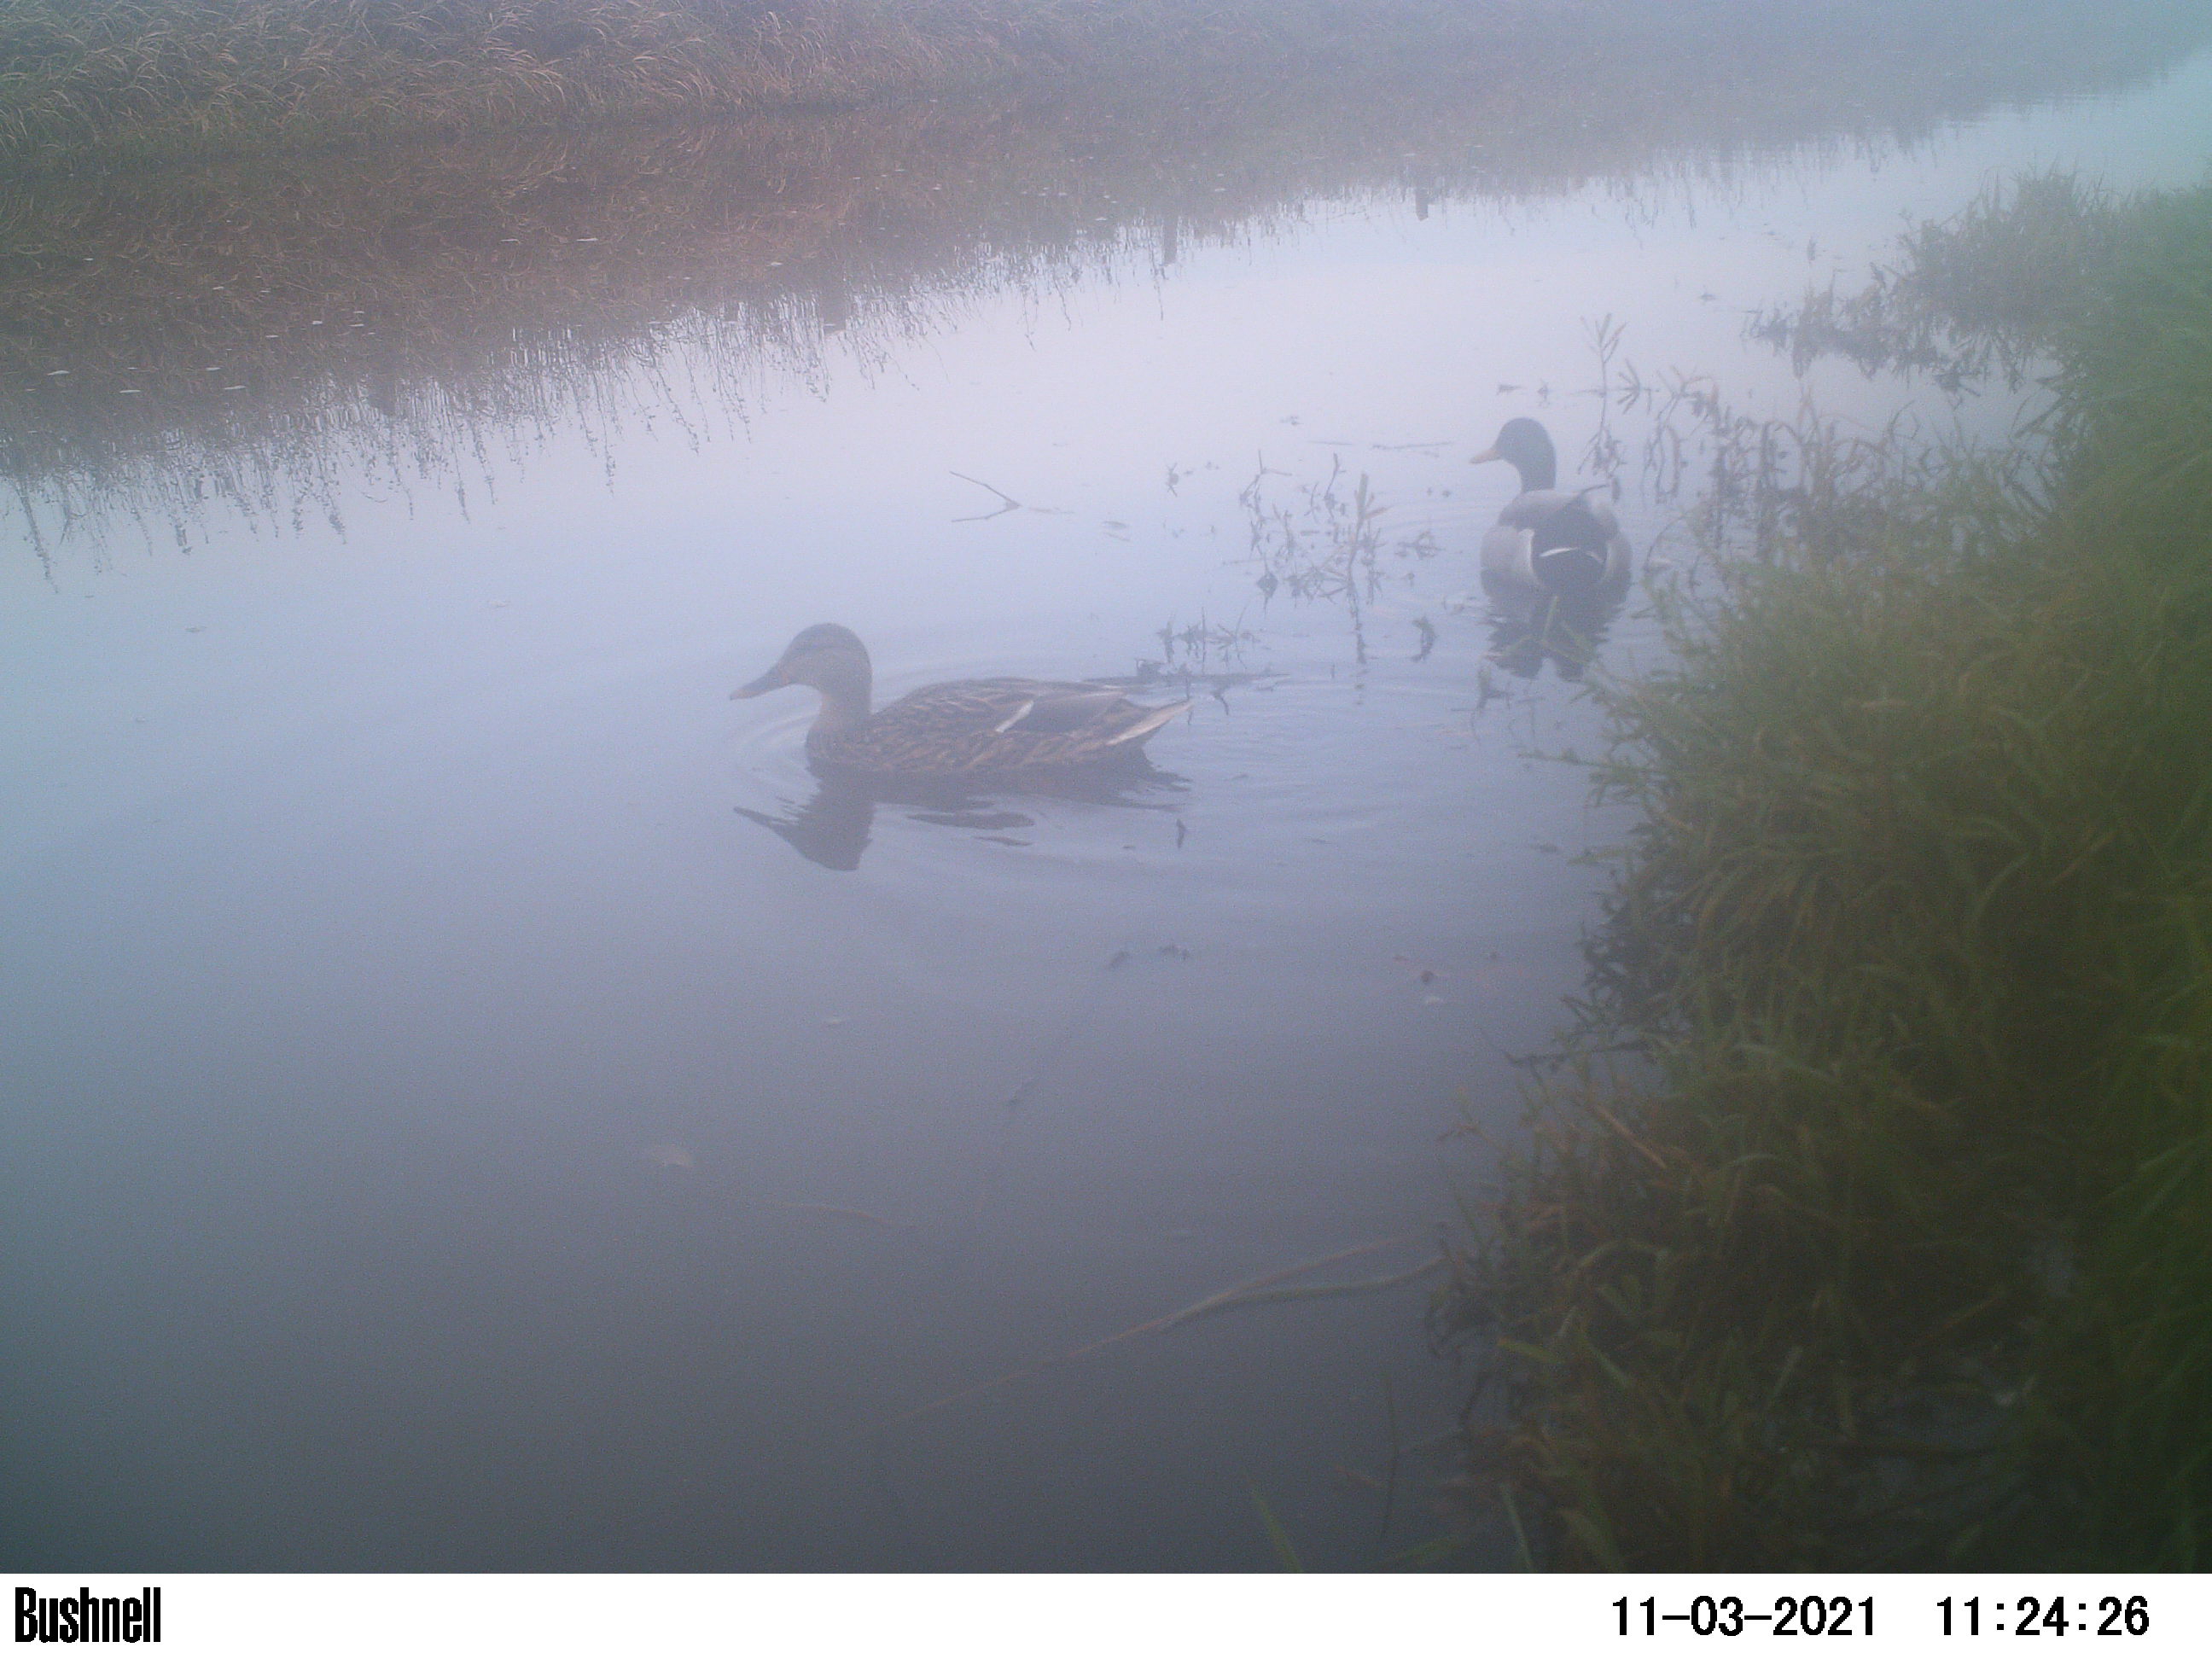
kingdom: Animalia
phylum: Chordata
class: Aves
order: Anseriformes
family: Anatidae
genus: Anas
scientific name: Anas
